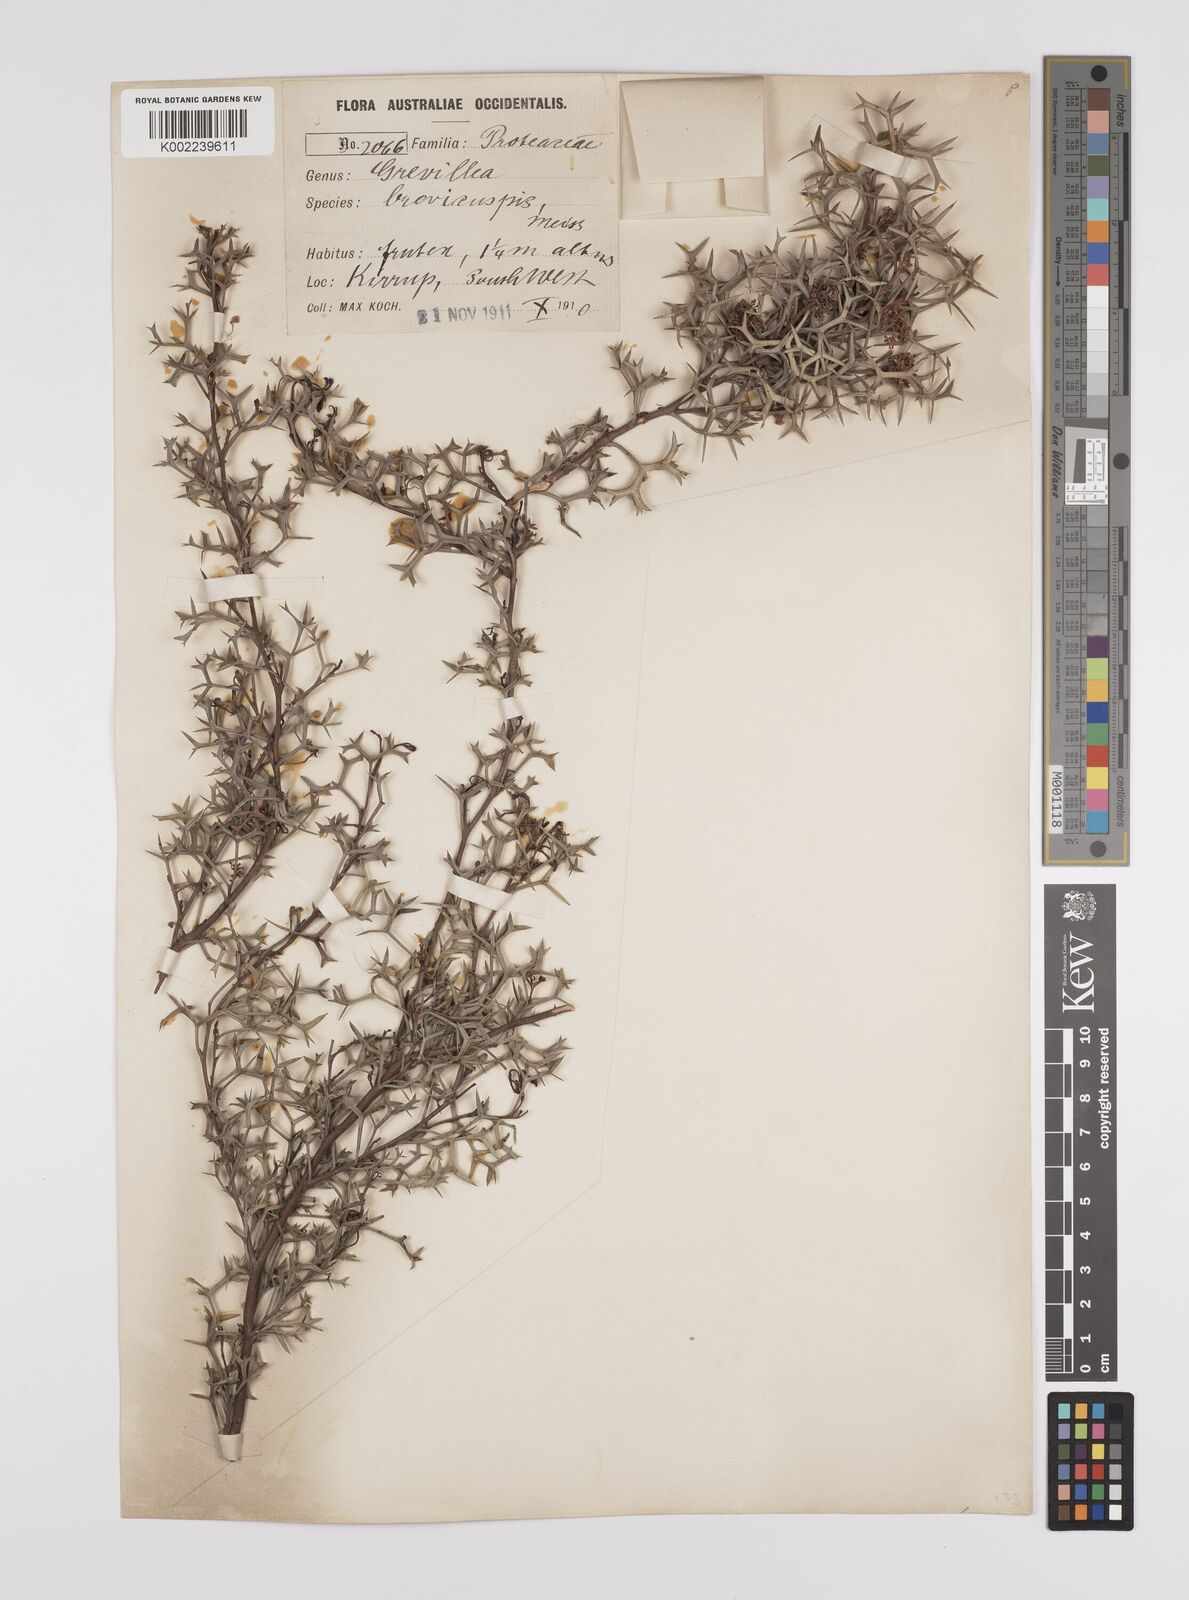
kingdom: Plantae
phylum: Tracheophyta
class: Magnoliopsida
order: Proteales
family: Proteaceae
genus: Grevillea
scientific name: Grevillea trifida
